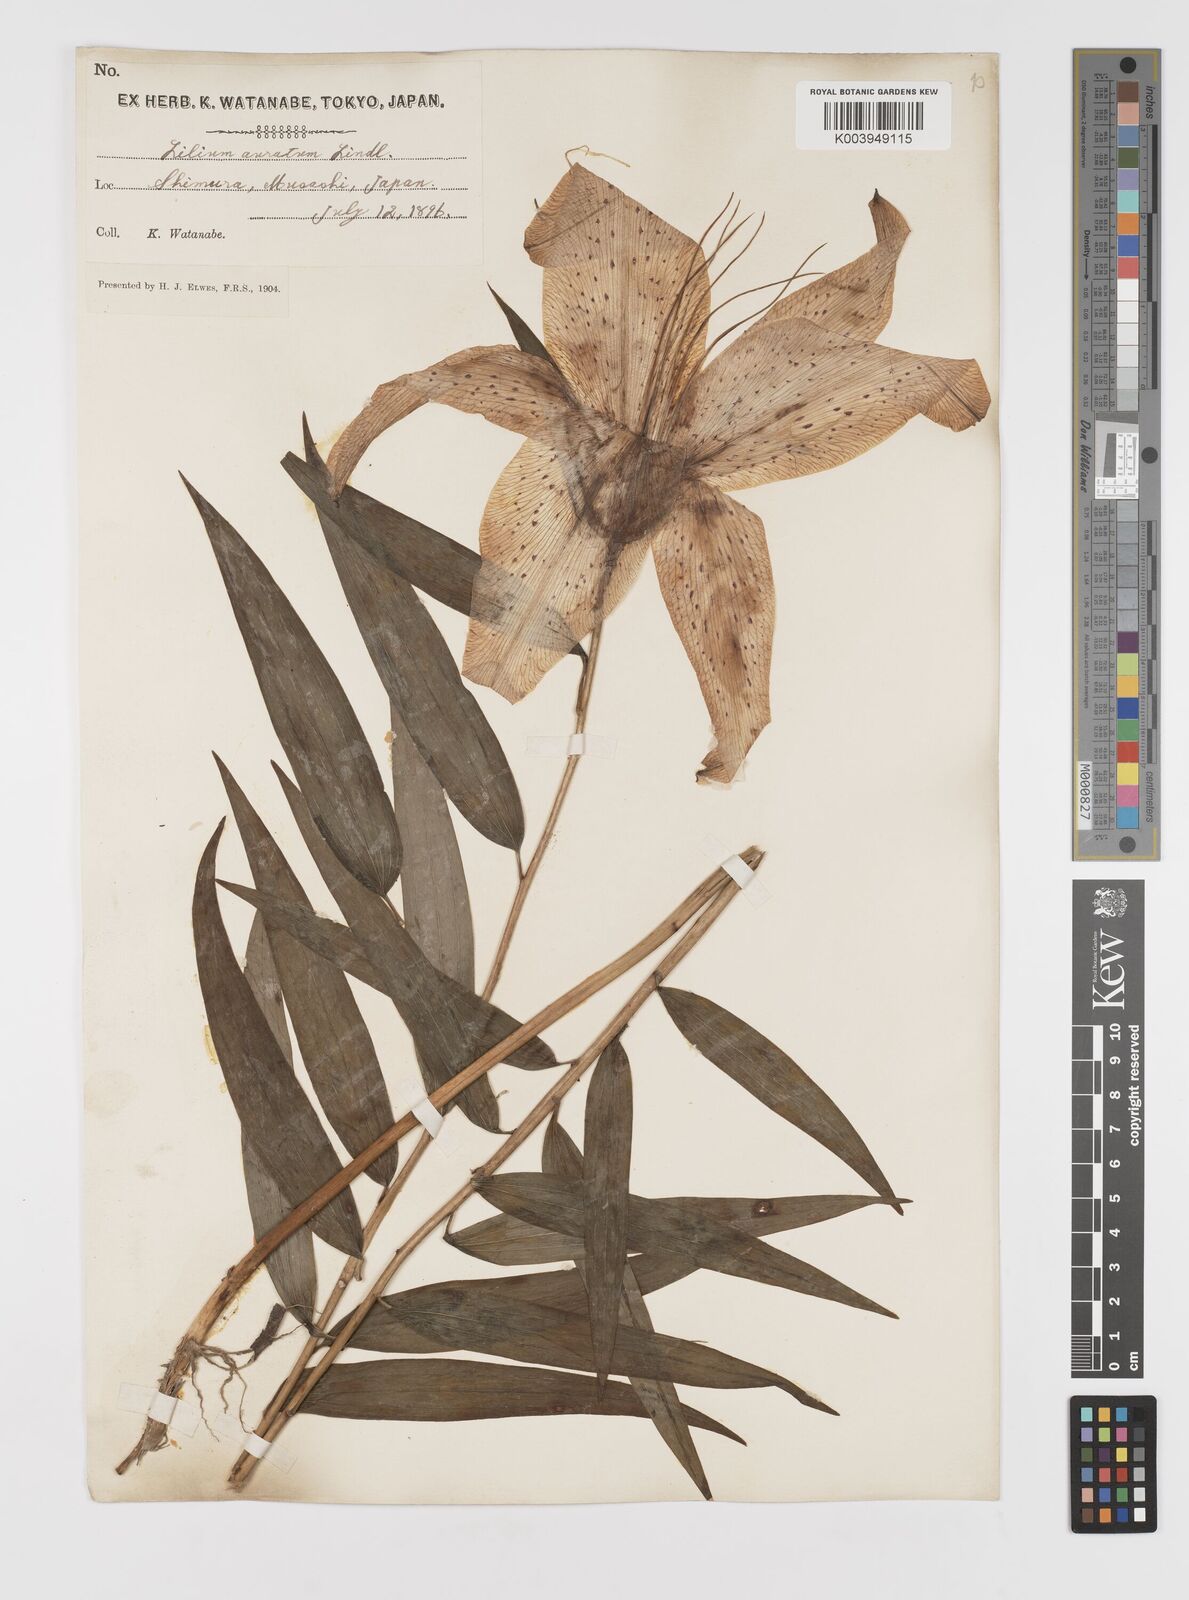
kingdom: Plantae
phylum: Tracheophyta
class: Liliopsida
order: Liliales
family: Liliaceae
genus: Lilium
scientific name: Lilium auratum
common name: Golden-ray lily
